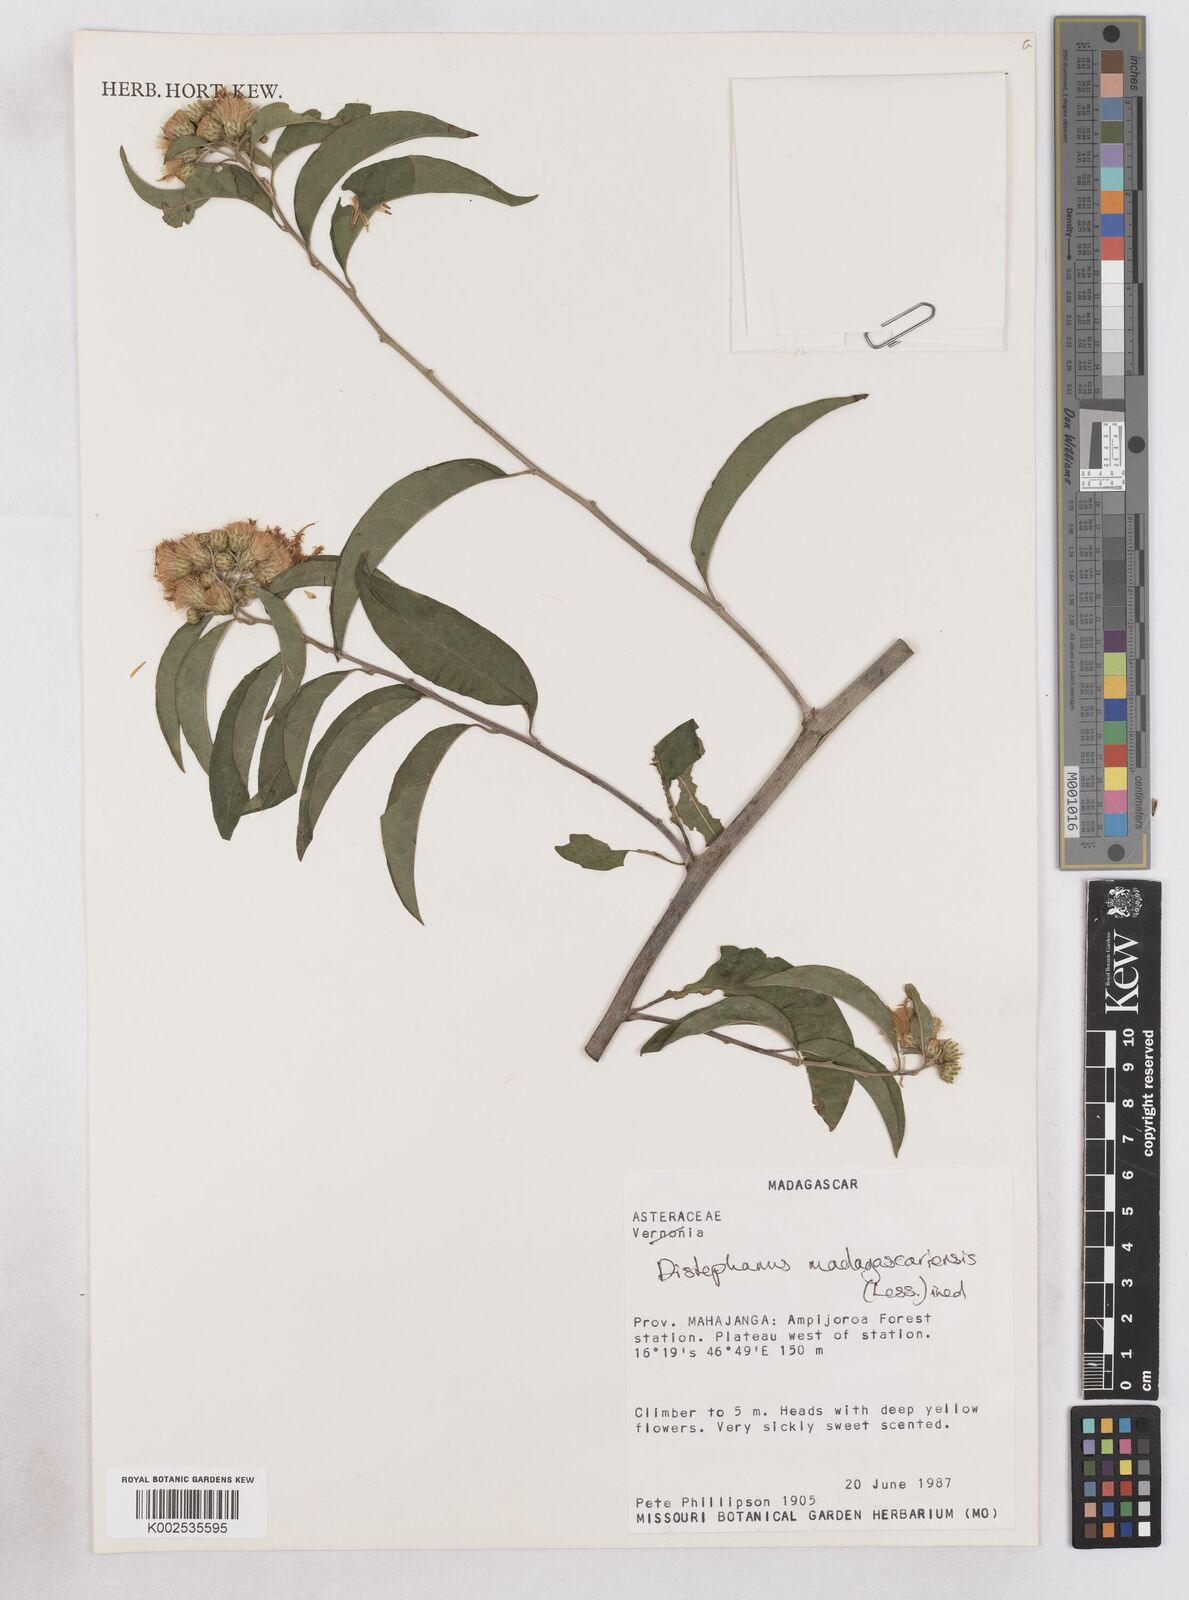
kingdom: Plantae
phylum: Tracheophyta
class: Magnoliopsida
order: Asterales
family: Asteraceae
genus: Distephanus
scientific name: Distephanus madagascariensis
